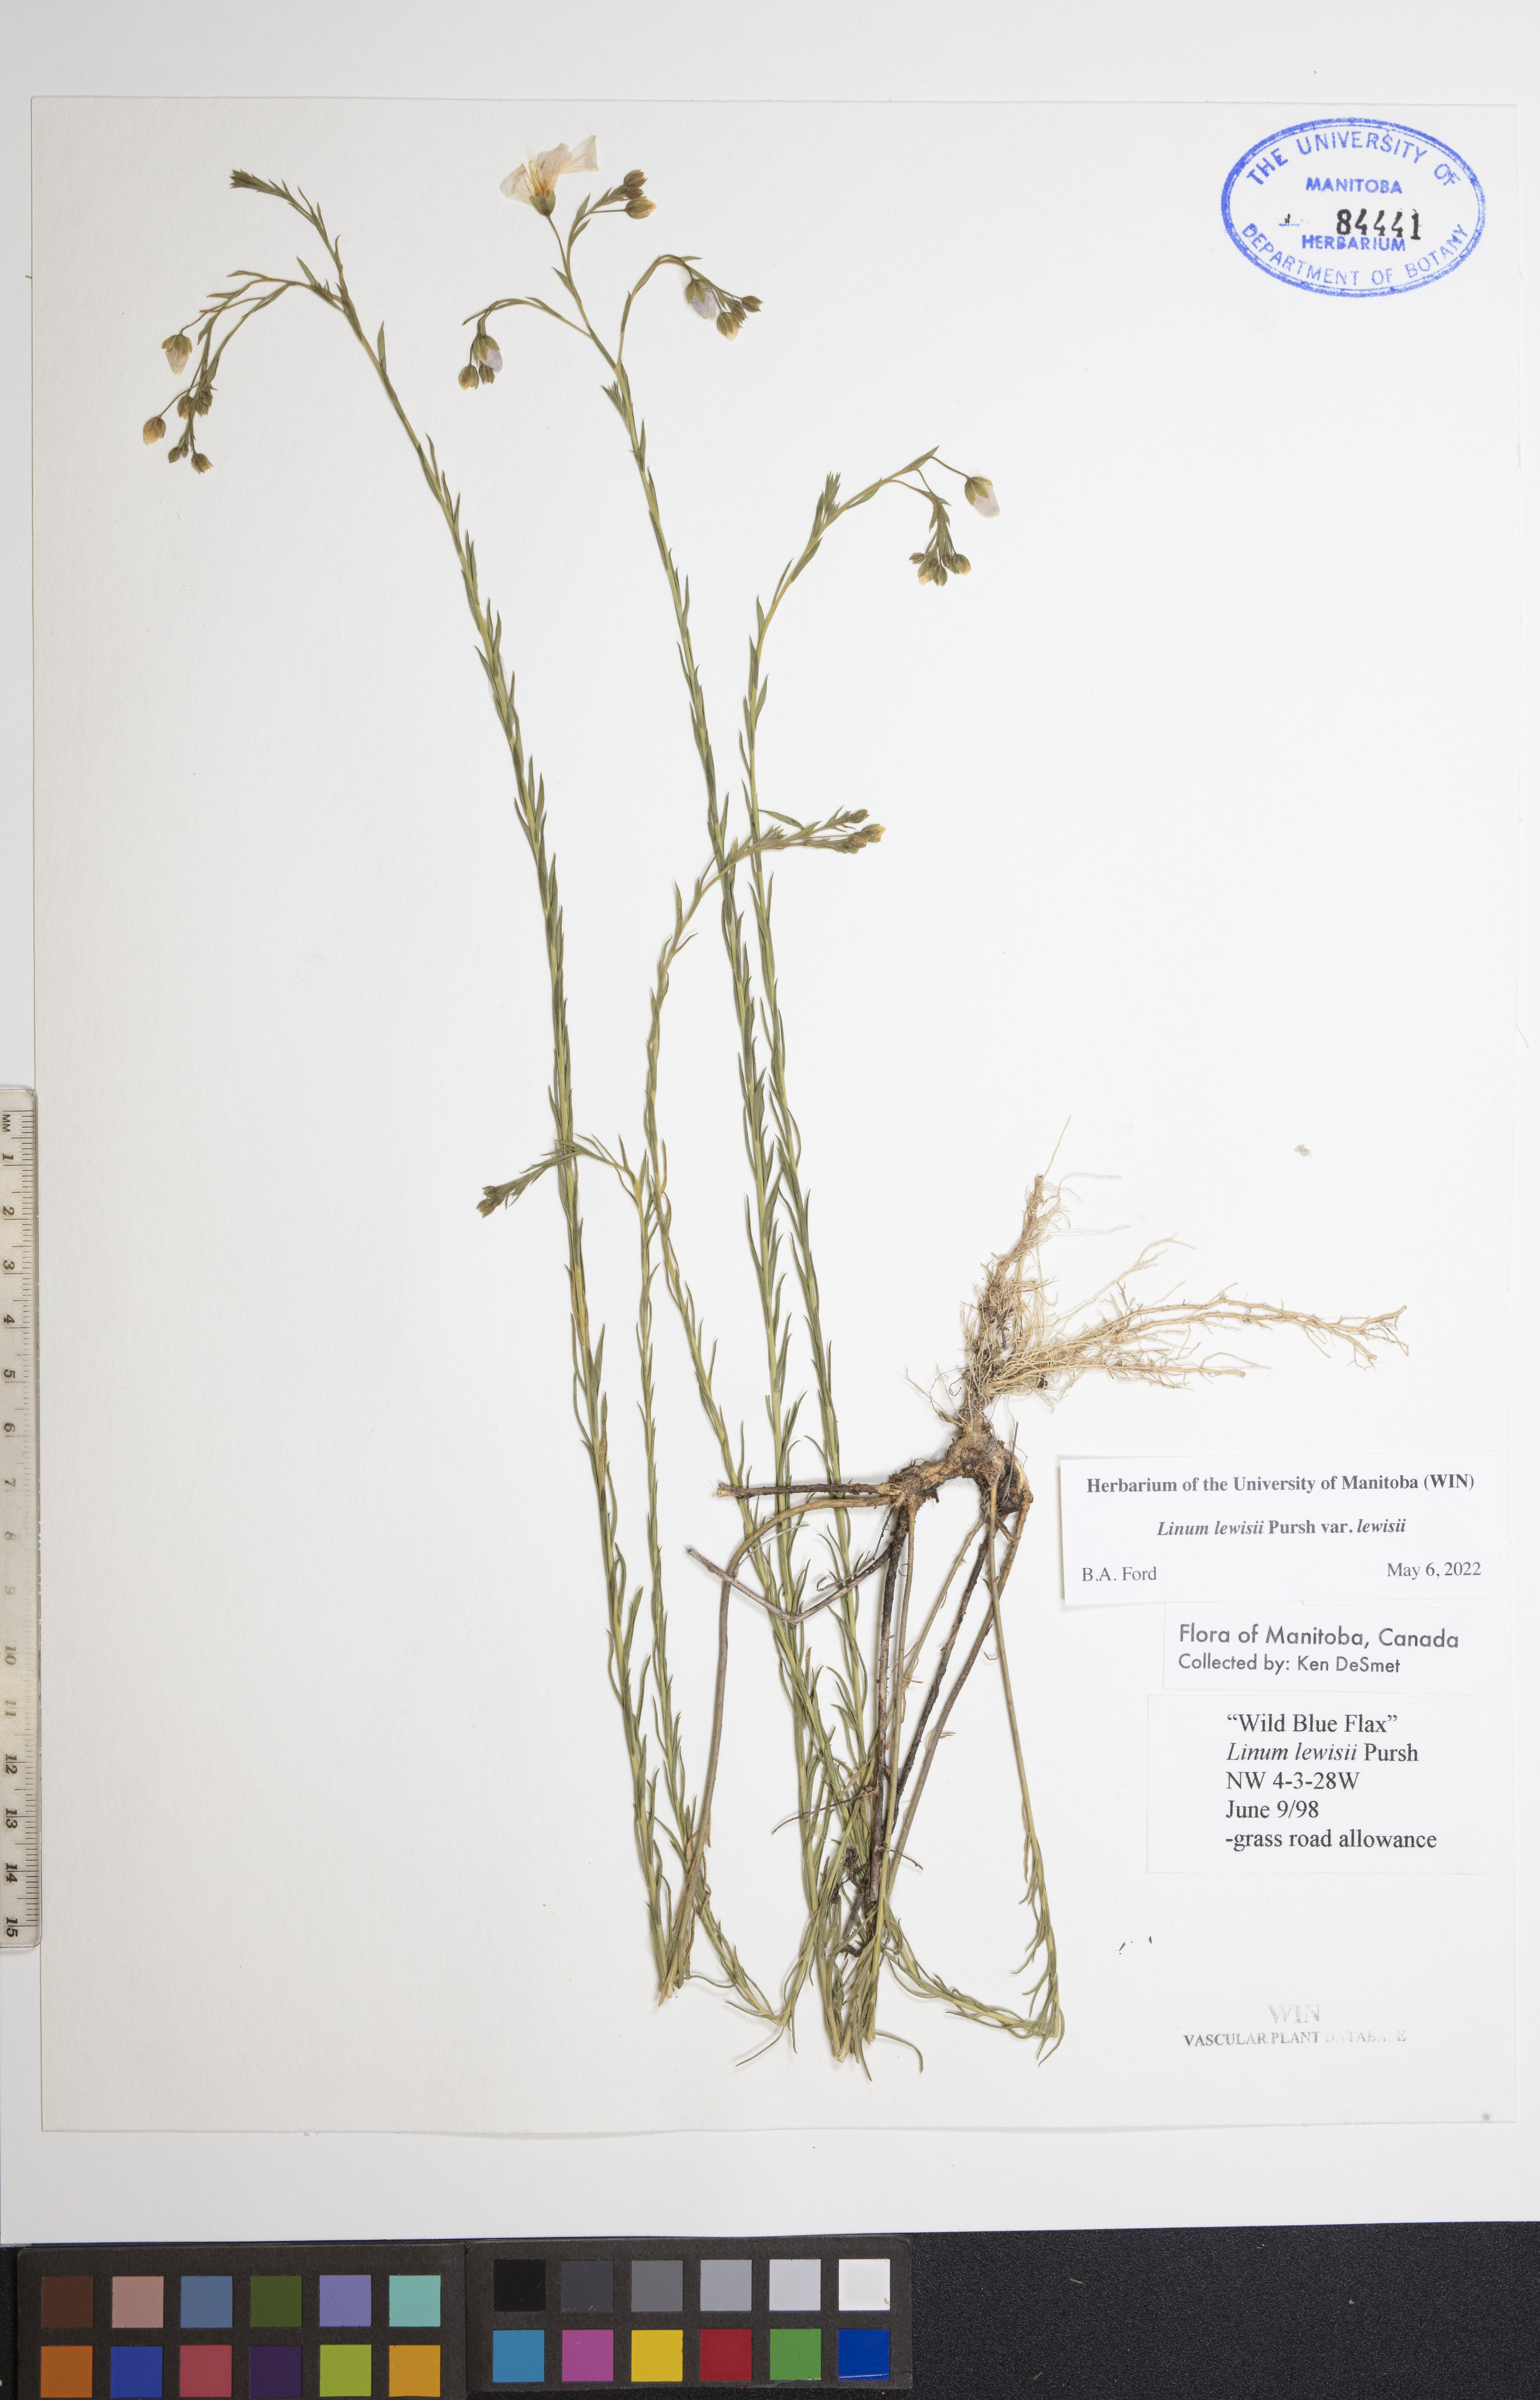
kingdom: Plantae
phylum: Tracheophyta
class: Magnoliopsida
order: Malpighiales
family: Linaceae
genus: Linum
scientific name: Linum lewisii
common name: Prairie flax
